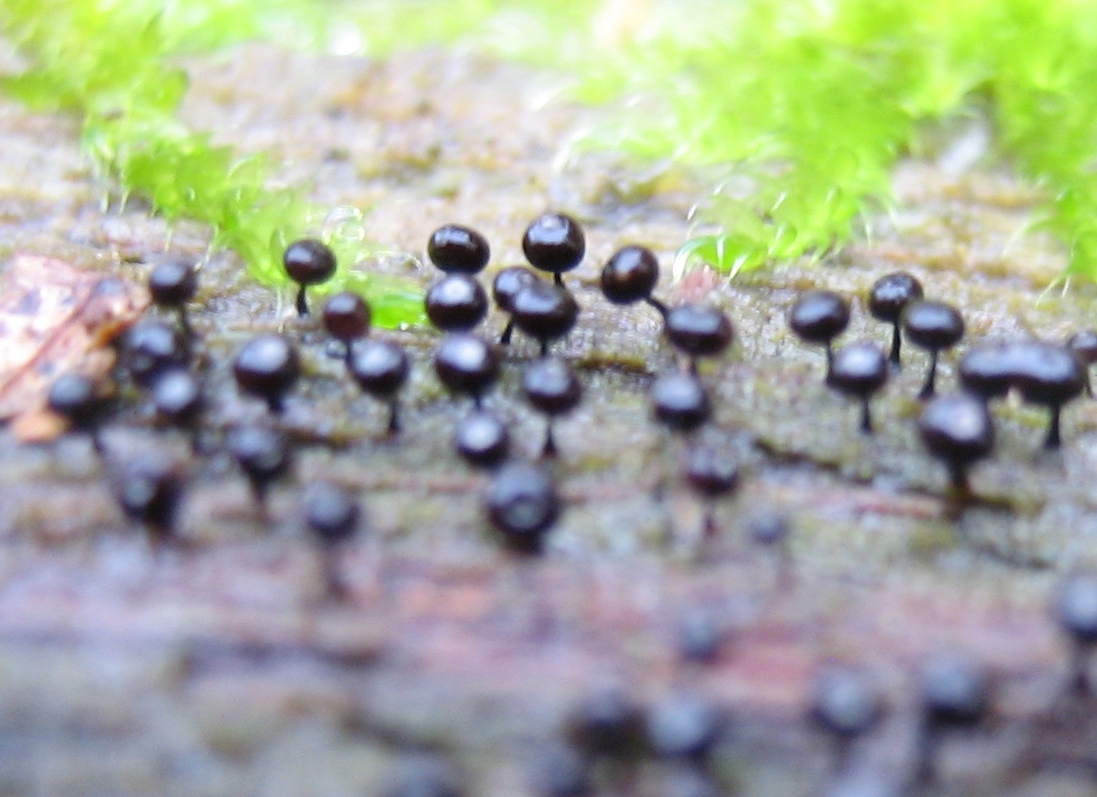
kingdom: Protozoa
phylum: Mycetozoa
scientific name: Mycetozoa
